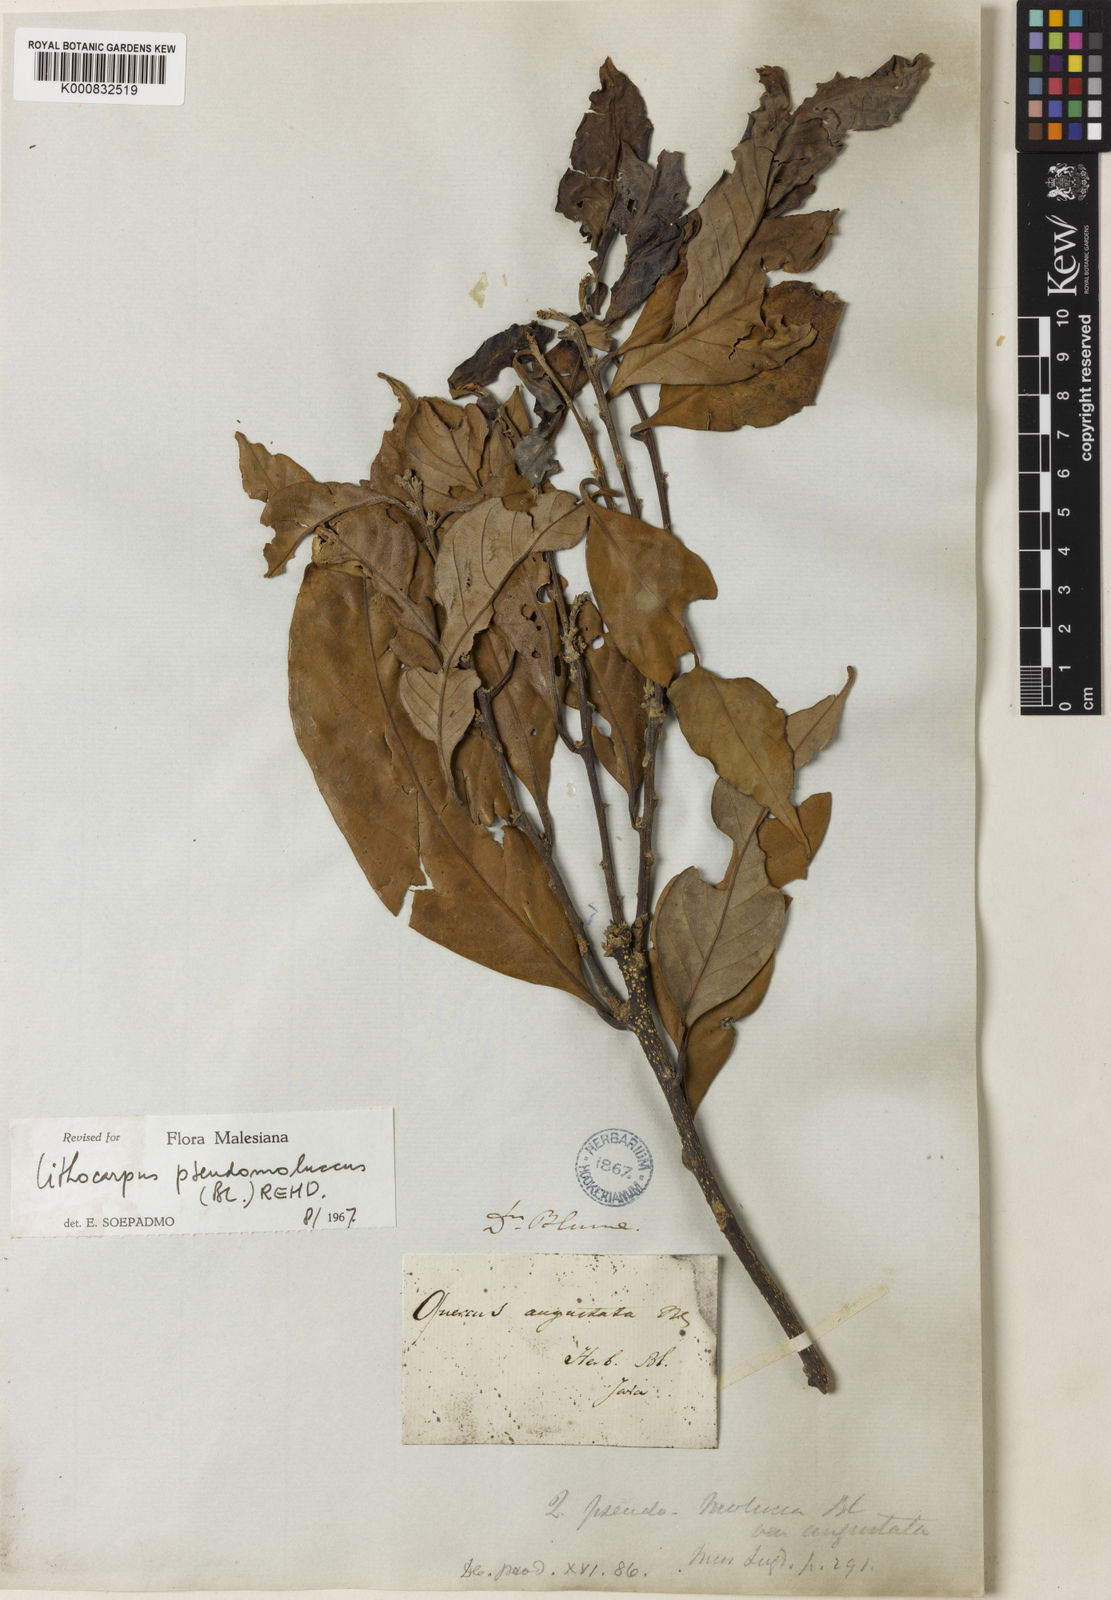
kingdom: Plantae
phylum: Tracheophyta
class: Magnoliopsida
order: Fagales
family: Fagaceae
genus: Lithocarpus
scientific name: Lithocarpus pseudomoluccus
